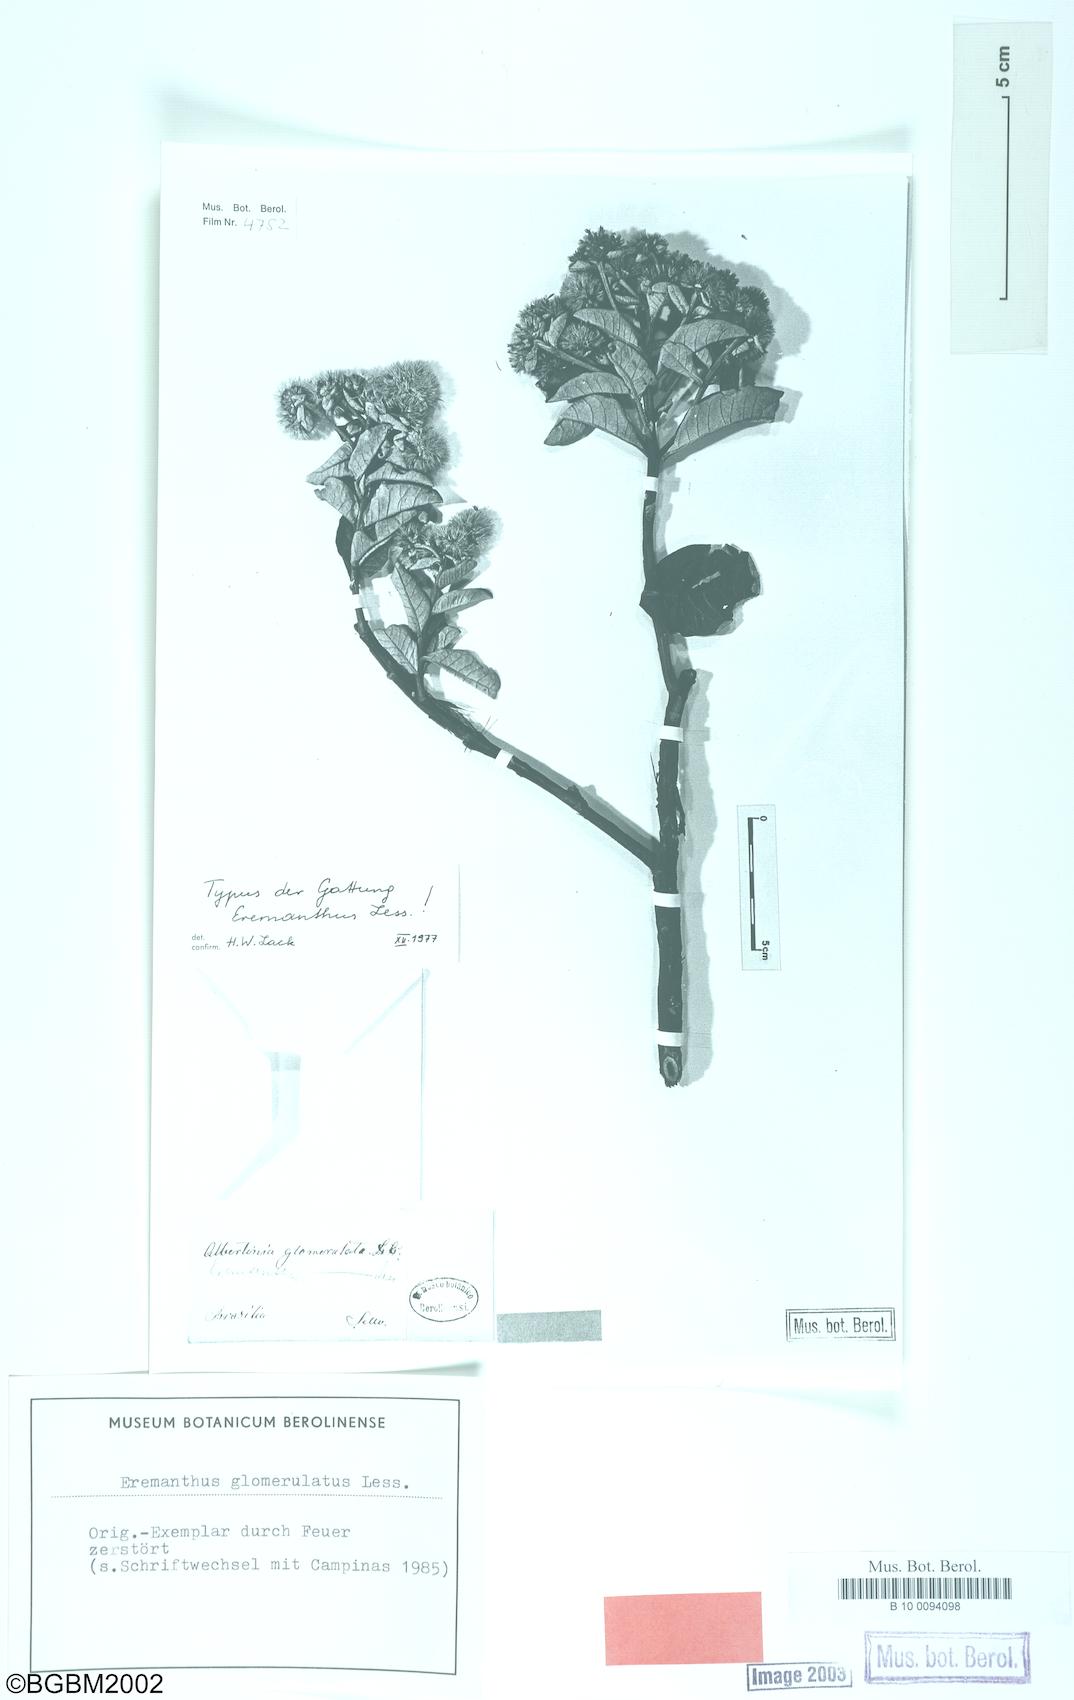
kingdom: Plantae
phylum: Tracheophyta
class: Magnoliopsida
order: Asterales
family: Asteraceae
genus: Eremanthus
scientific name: Eremanthus glomerulatus
